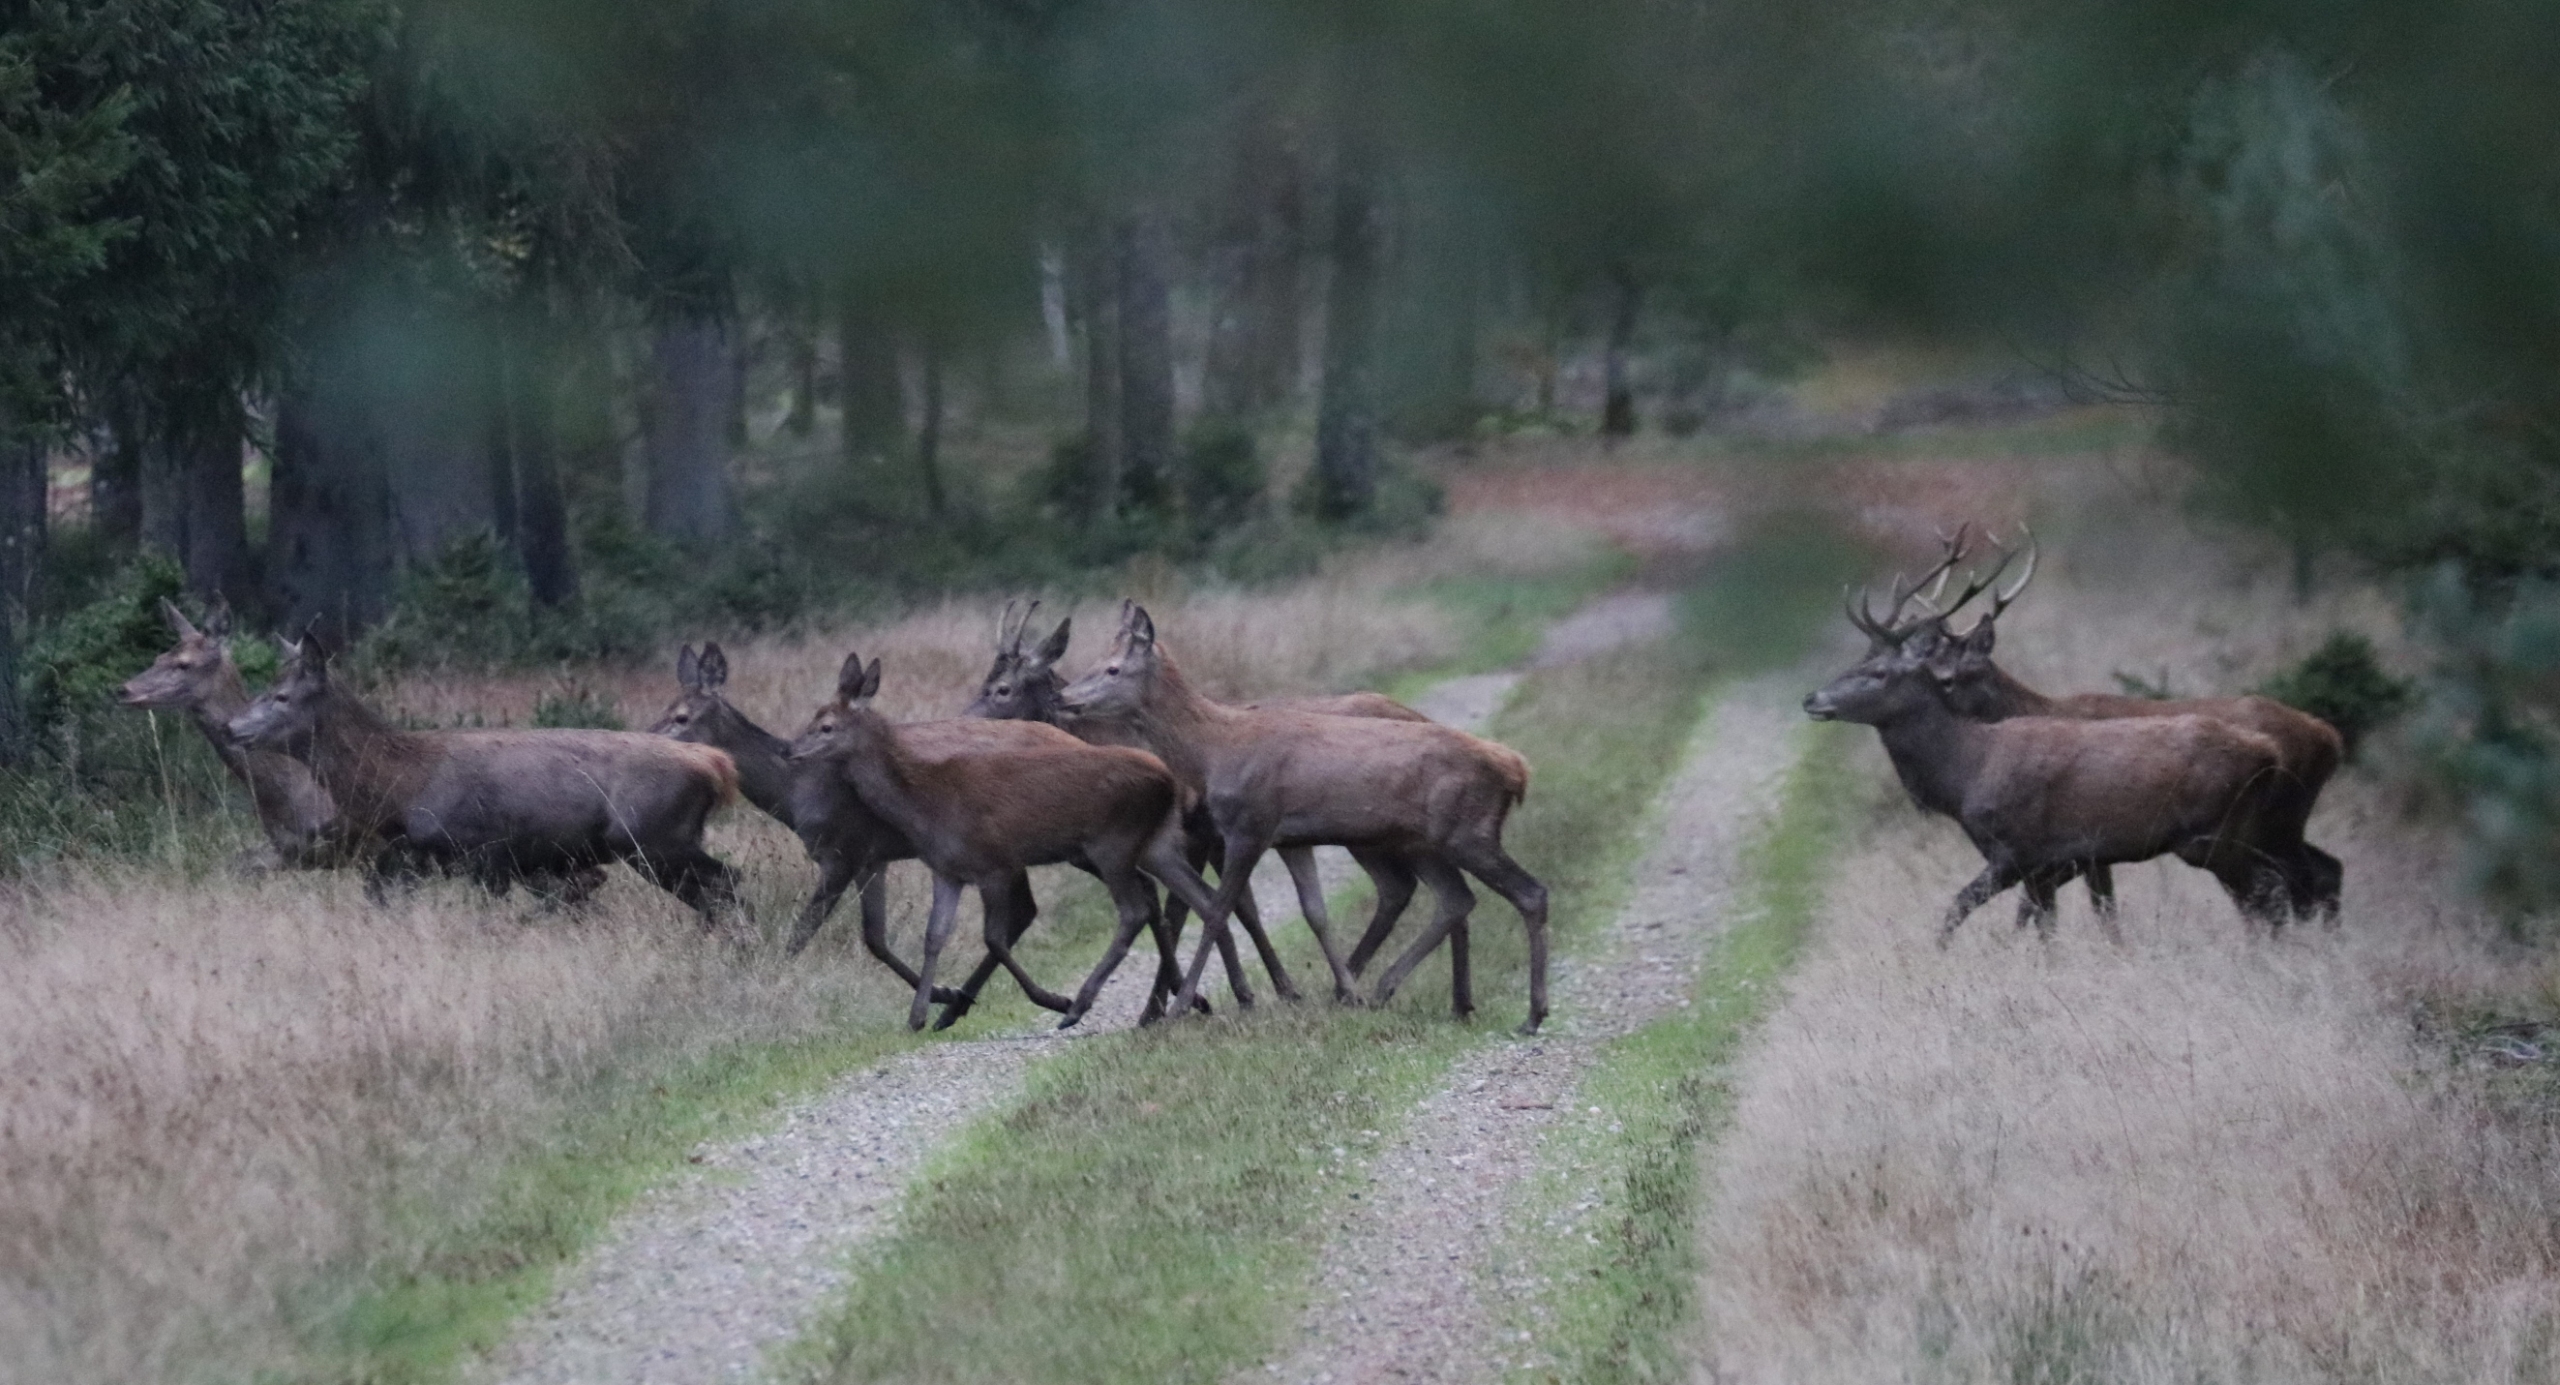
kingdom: Animalia
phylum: Chordata
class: Mammalia
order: Artiodactyla
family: Cervidae
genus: Cervus
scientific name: Cervus elaphus
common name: Krondyr
